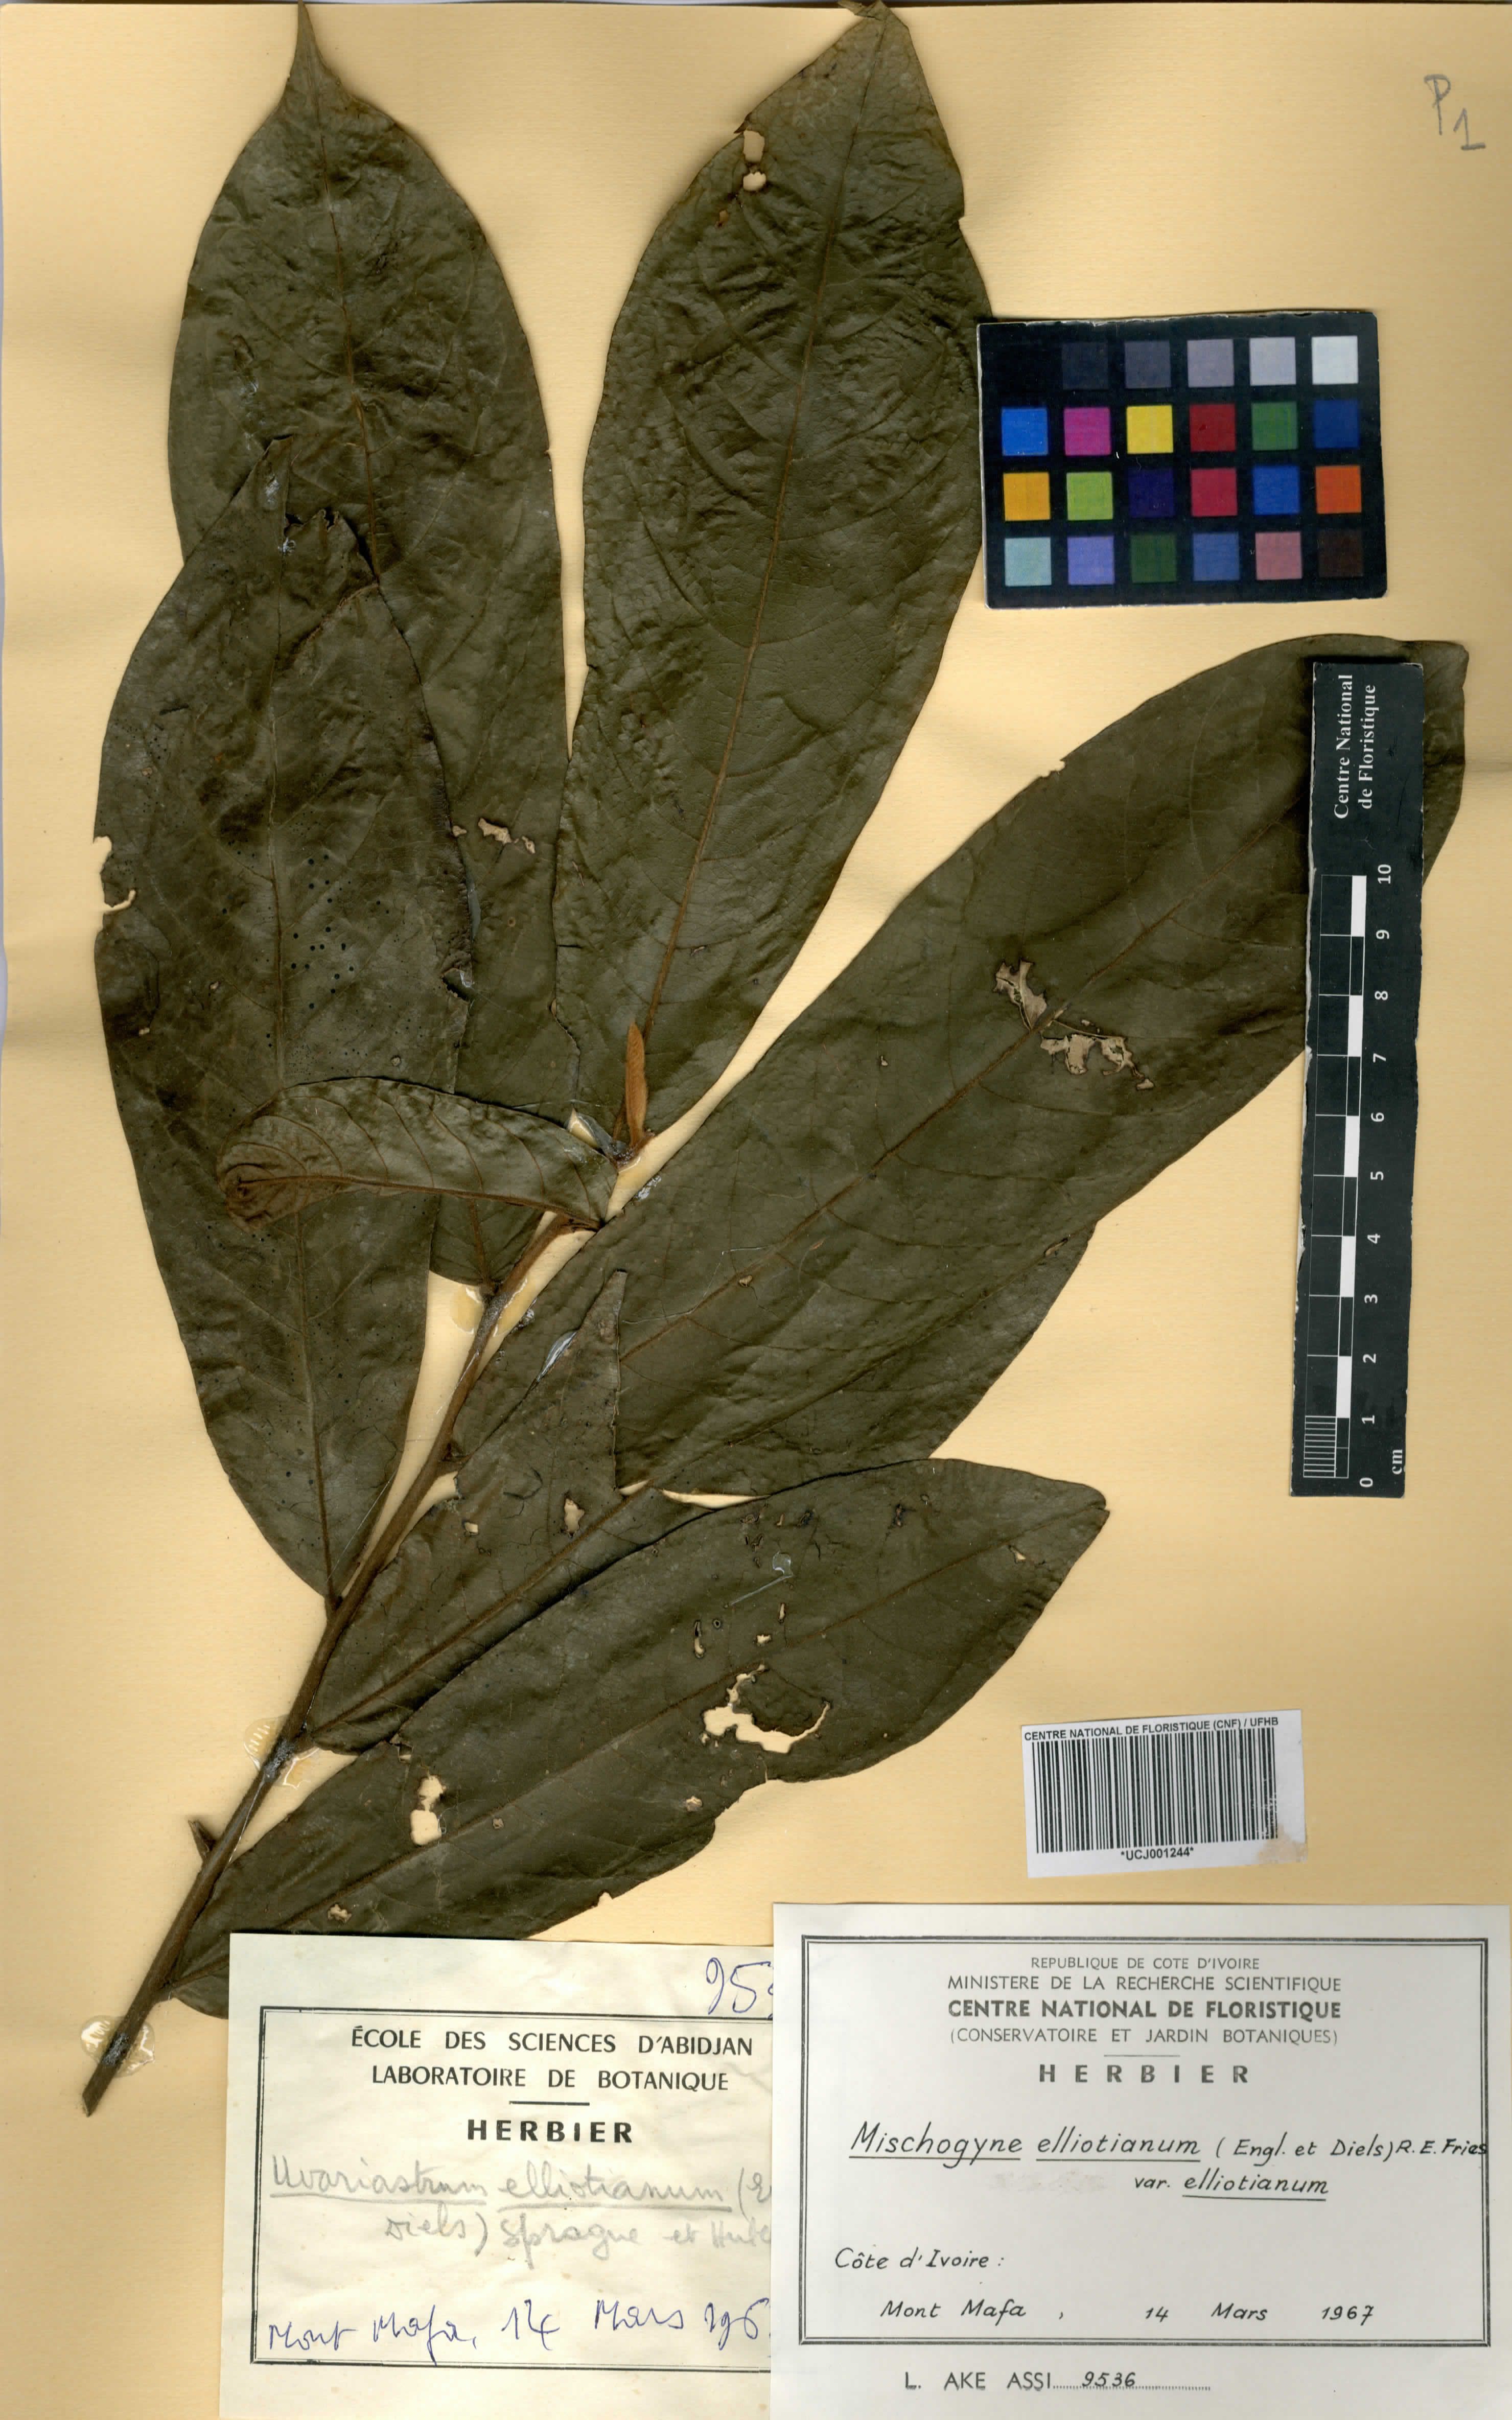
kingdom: Plantae
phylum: Tracheophyta
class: Magnoliopsida
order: Magnoliales
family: Annonaceae
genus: Mischogyne
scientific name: Mischogyne elliotianum
